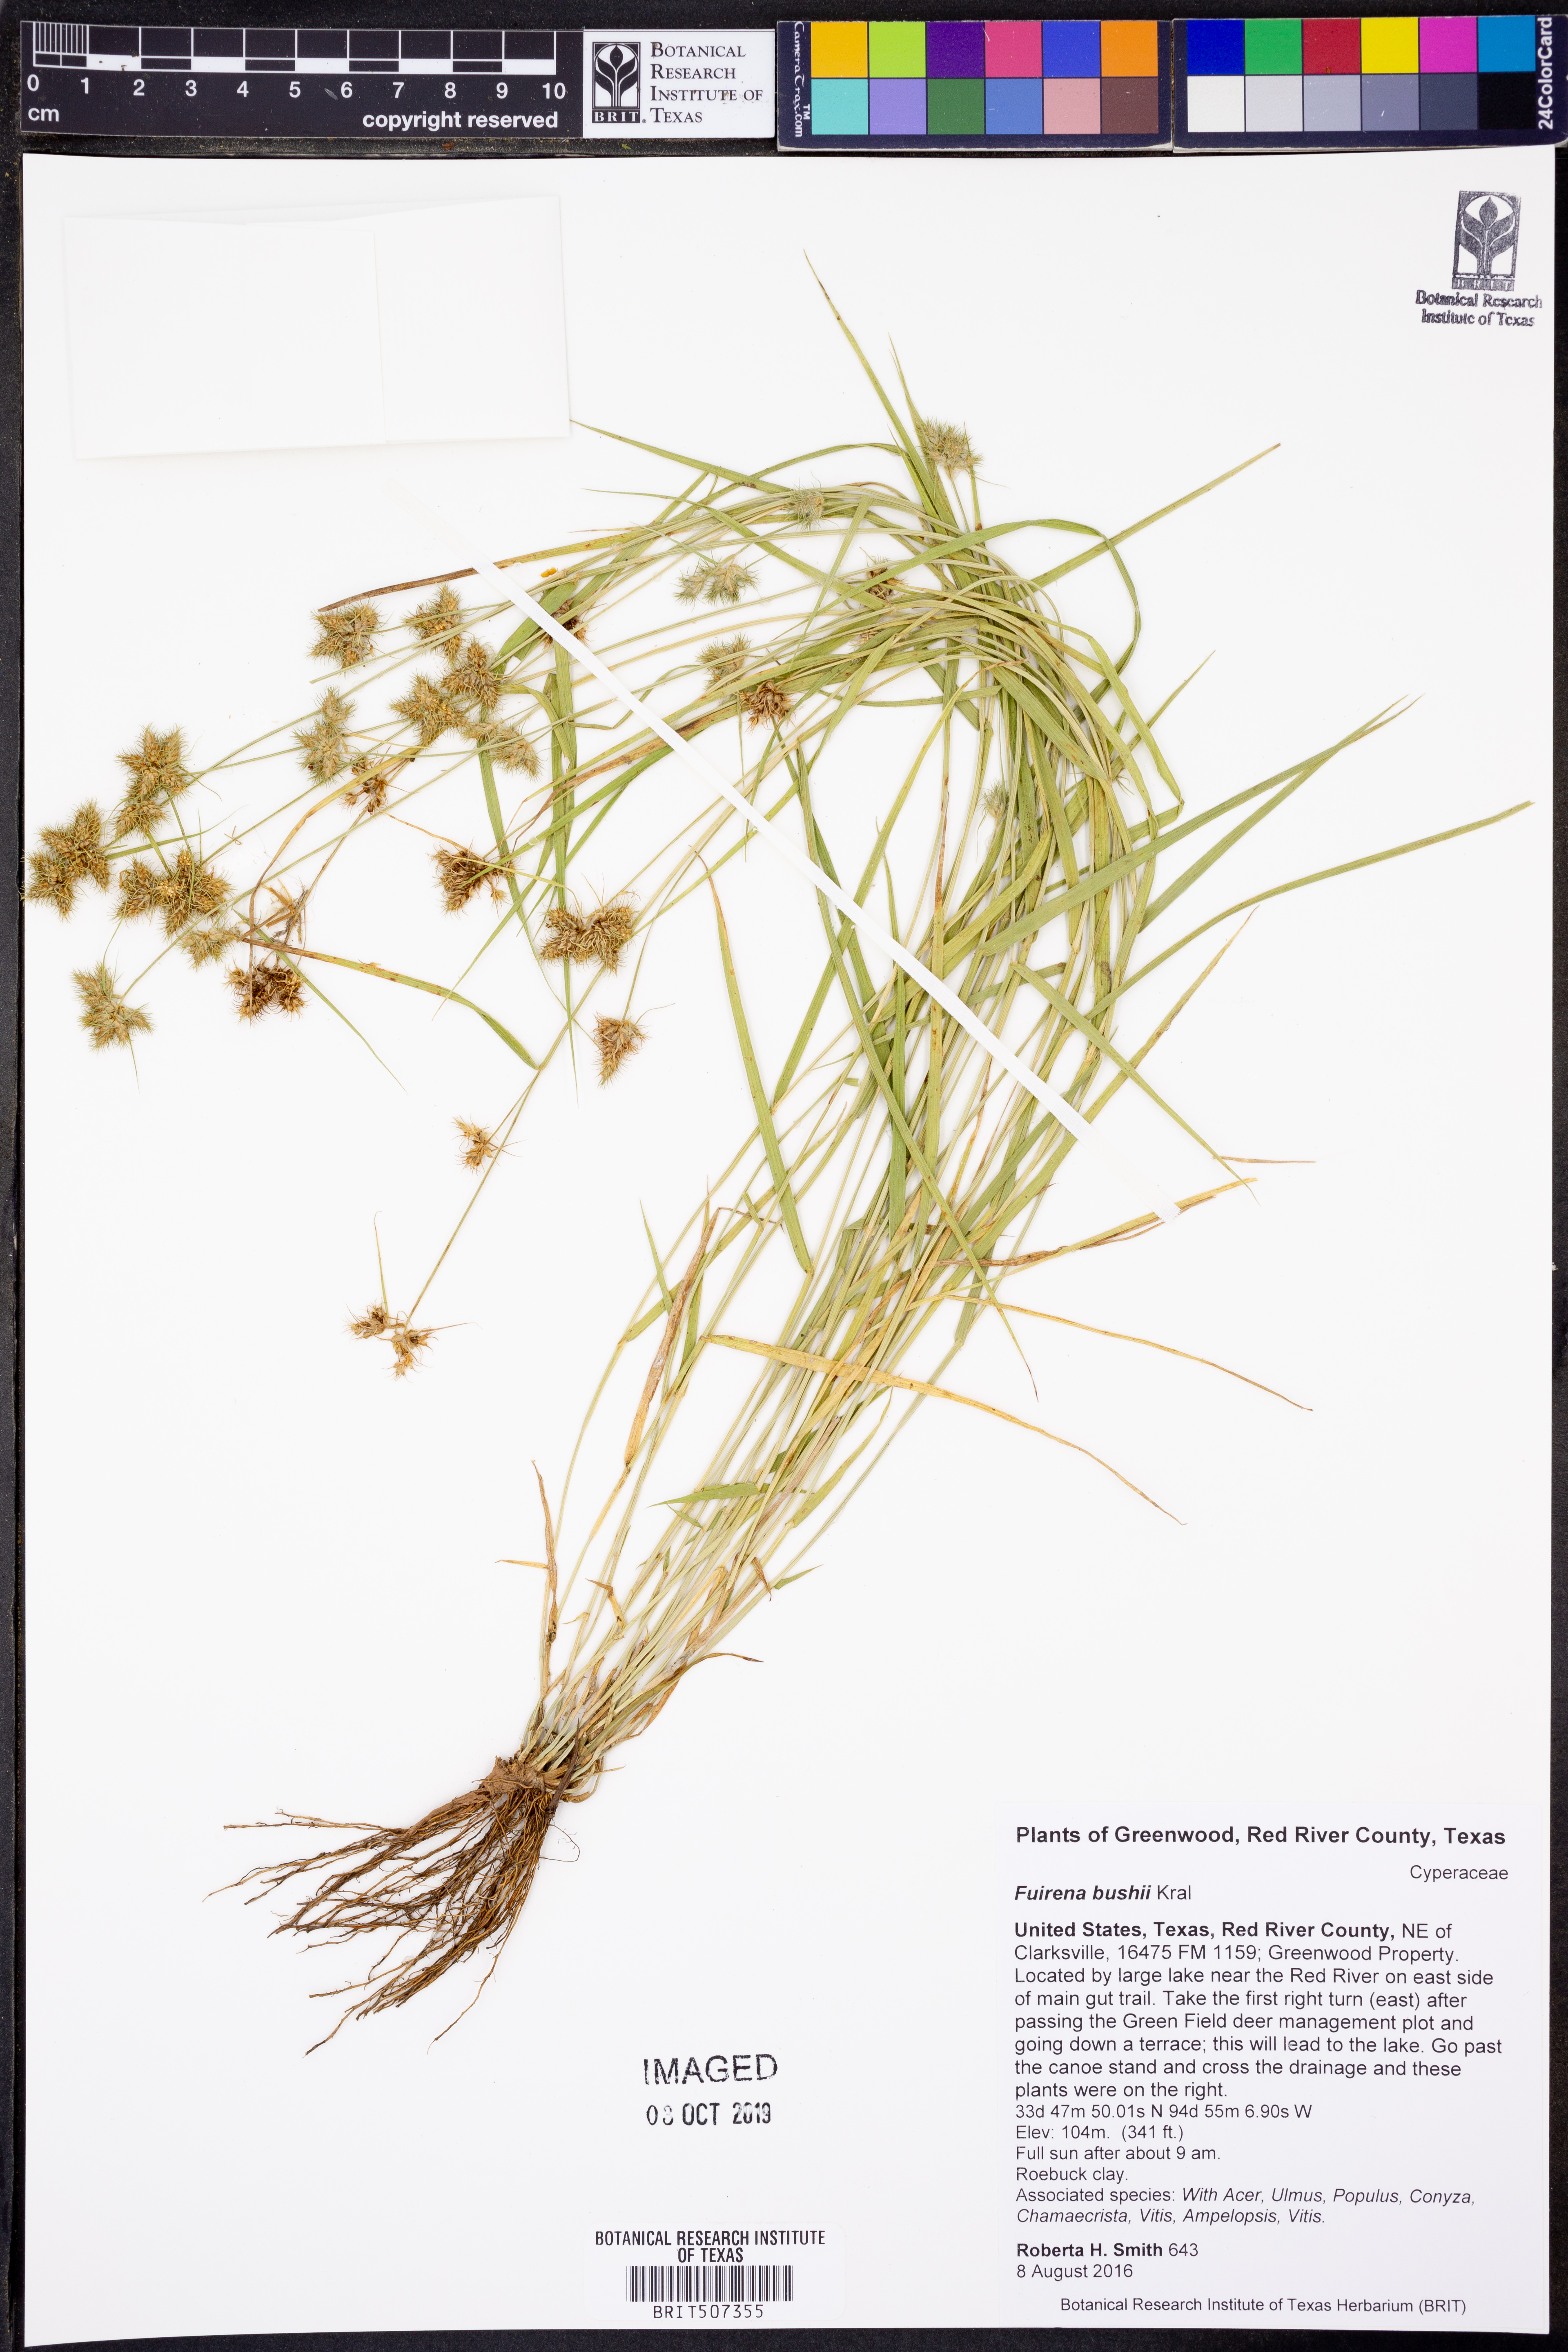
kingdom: Plantae
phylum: Tracheophyta
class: Liliopsida
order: Poales
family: Cyperaceae
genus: Fuirena
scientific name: Fuirena bushii
